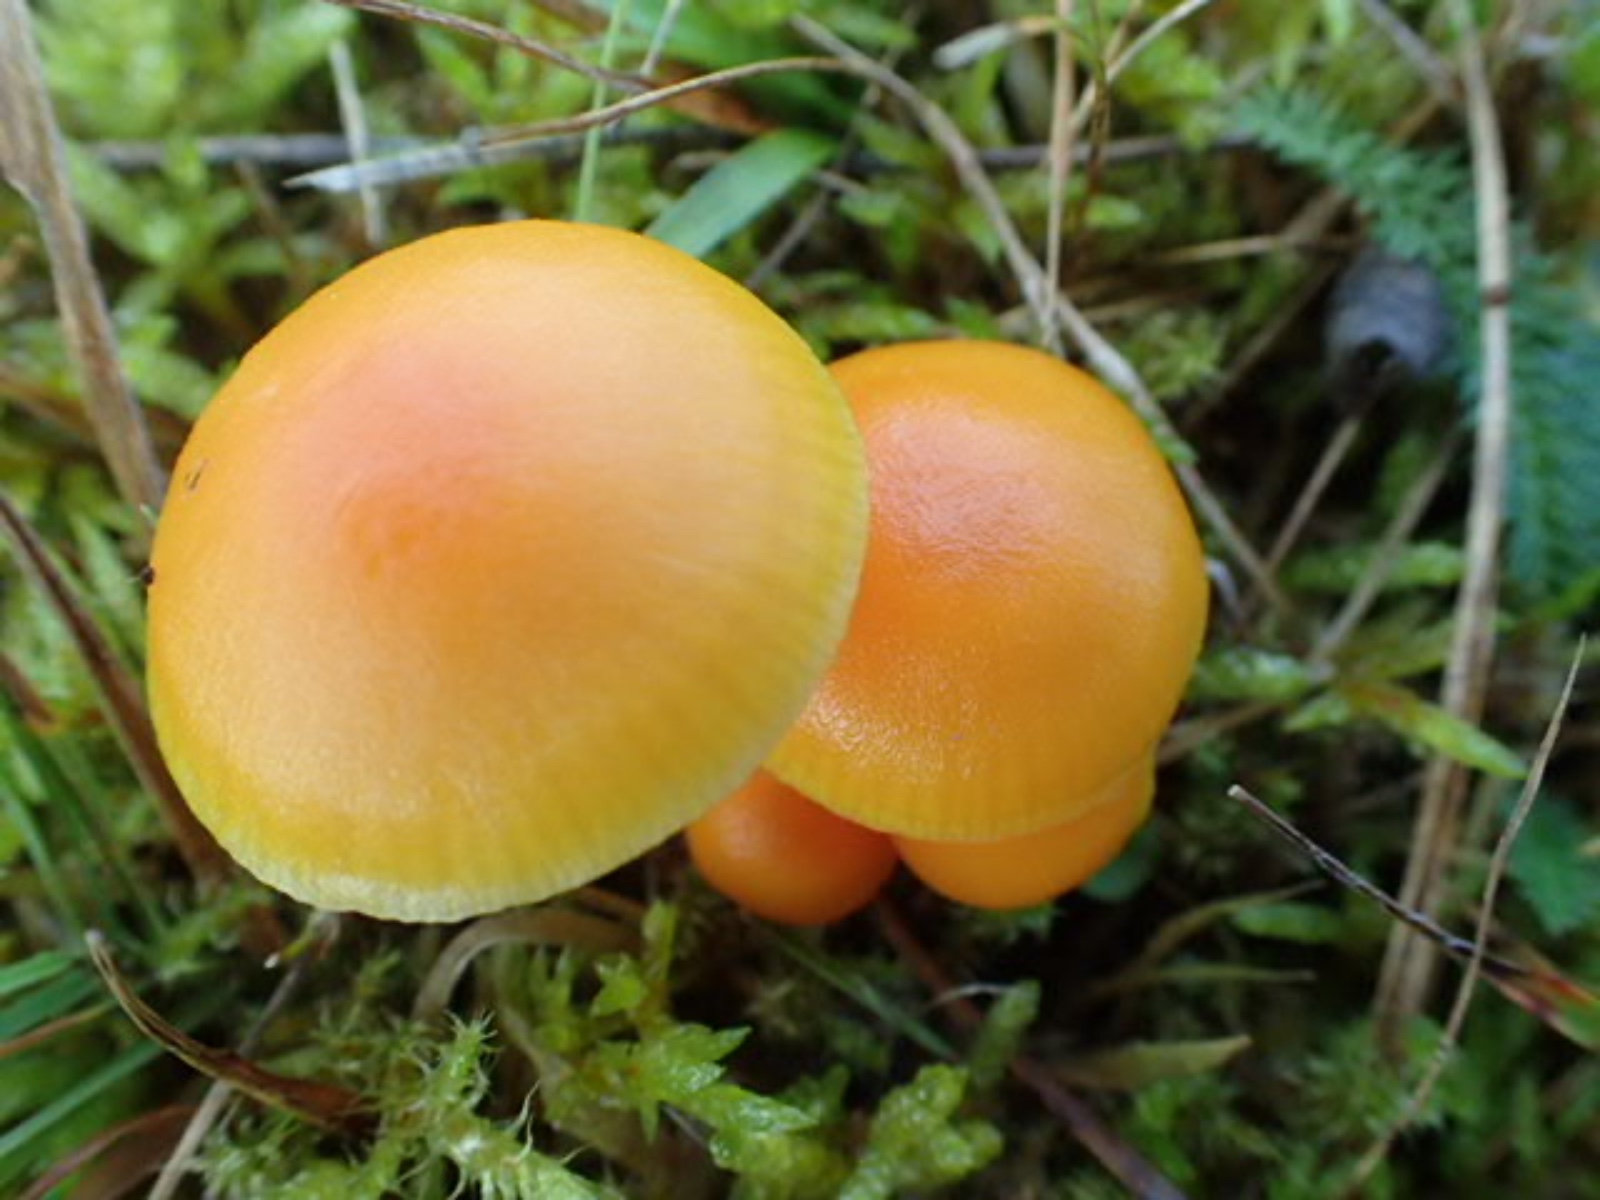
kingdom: Fungi
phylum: Basidiomycota
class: Agaricomycetes
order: Agaricales
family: Hygrophoraceae
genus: Hygrocybe
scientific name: Hygrocybe ceracea
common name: voksgul vokshat
